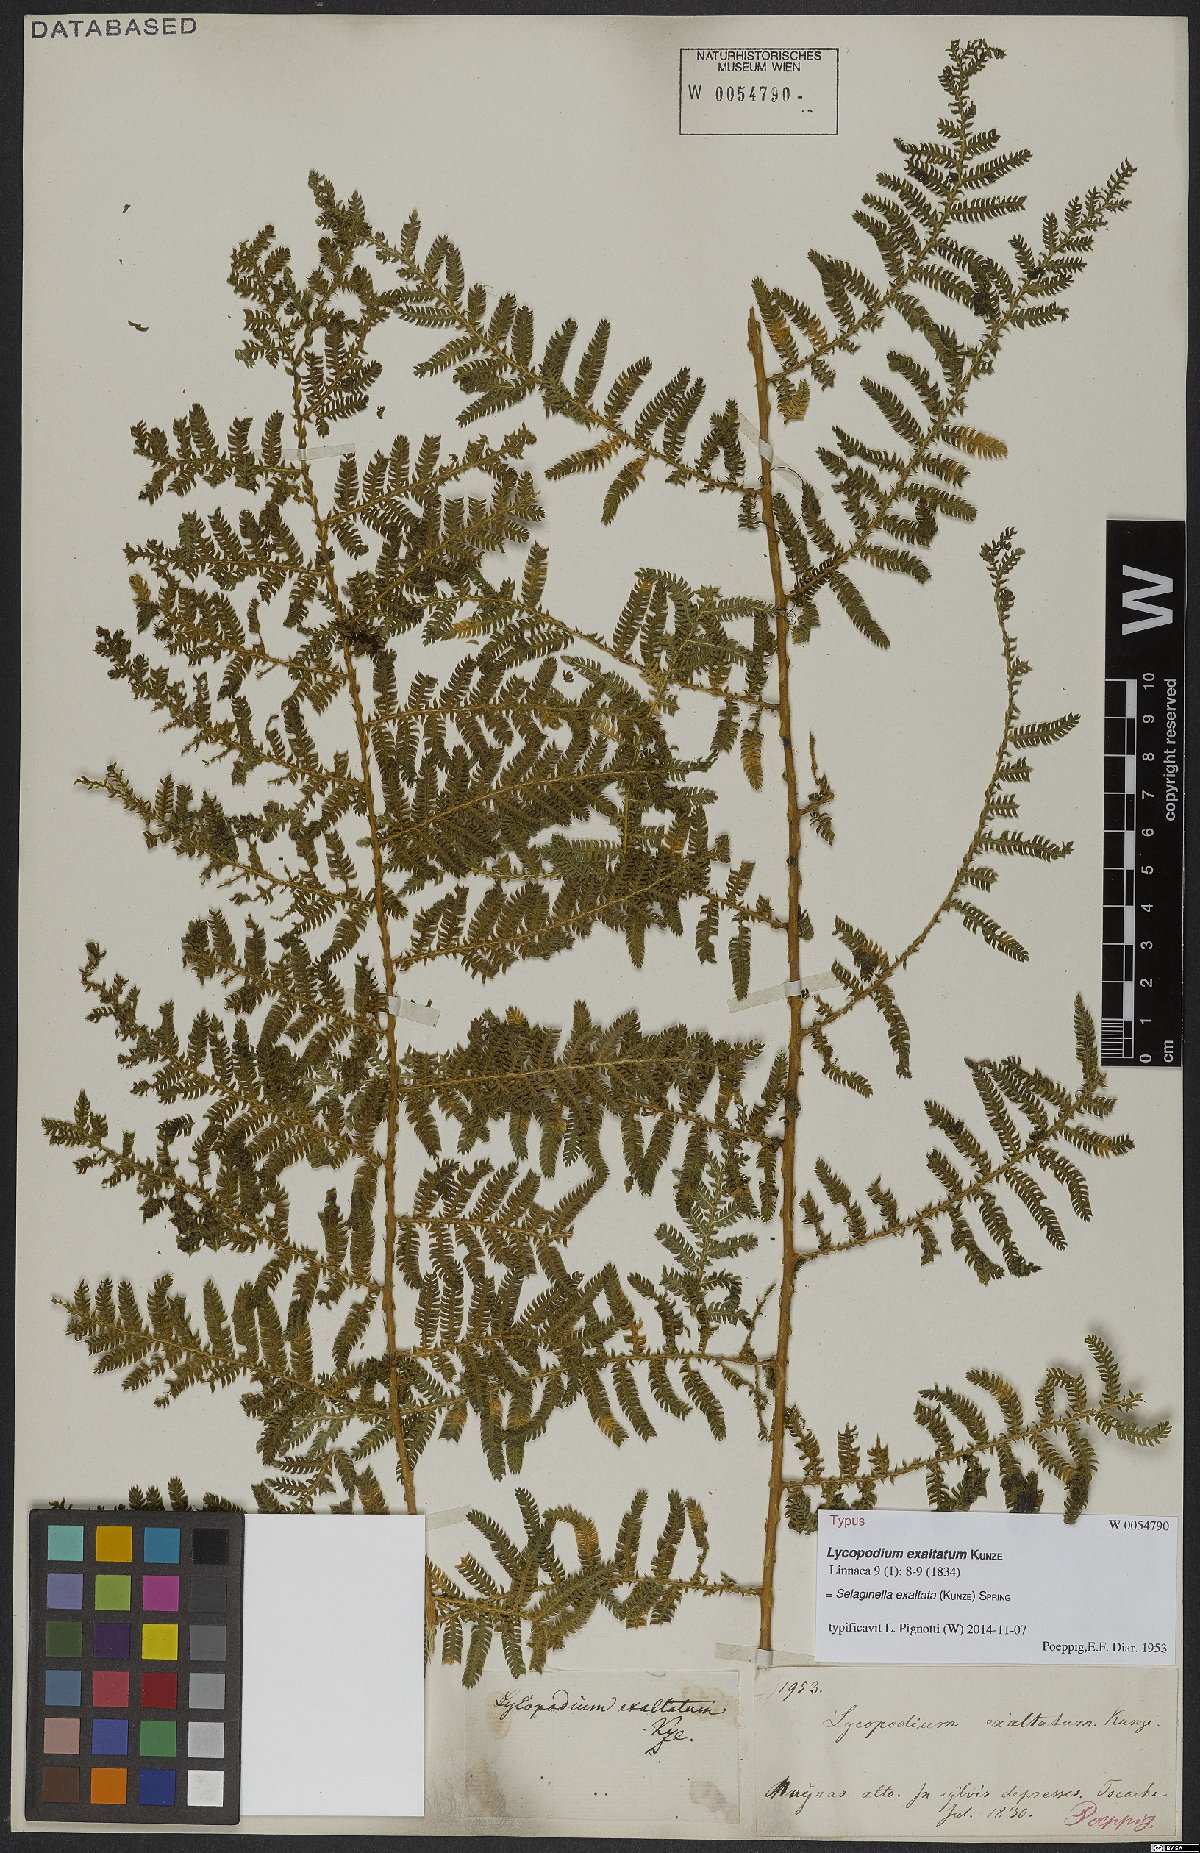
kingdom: Plantae
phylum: Tracheophyta
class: Lycopodiopsida
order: Selaginellales
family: Selaginellaceae
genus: Selaginella
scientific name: Selaginella exaltata
